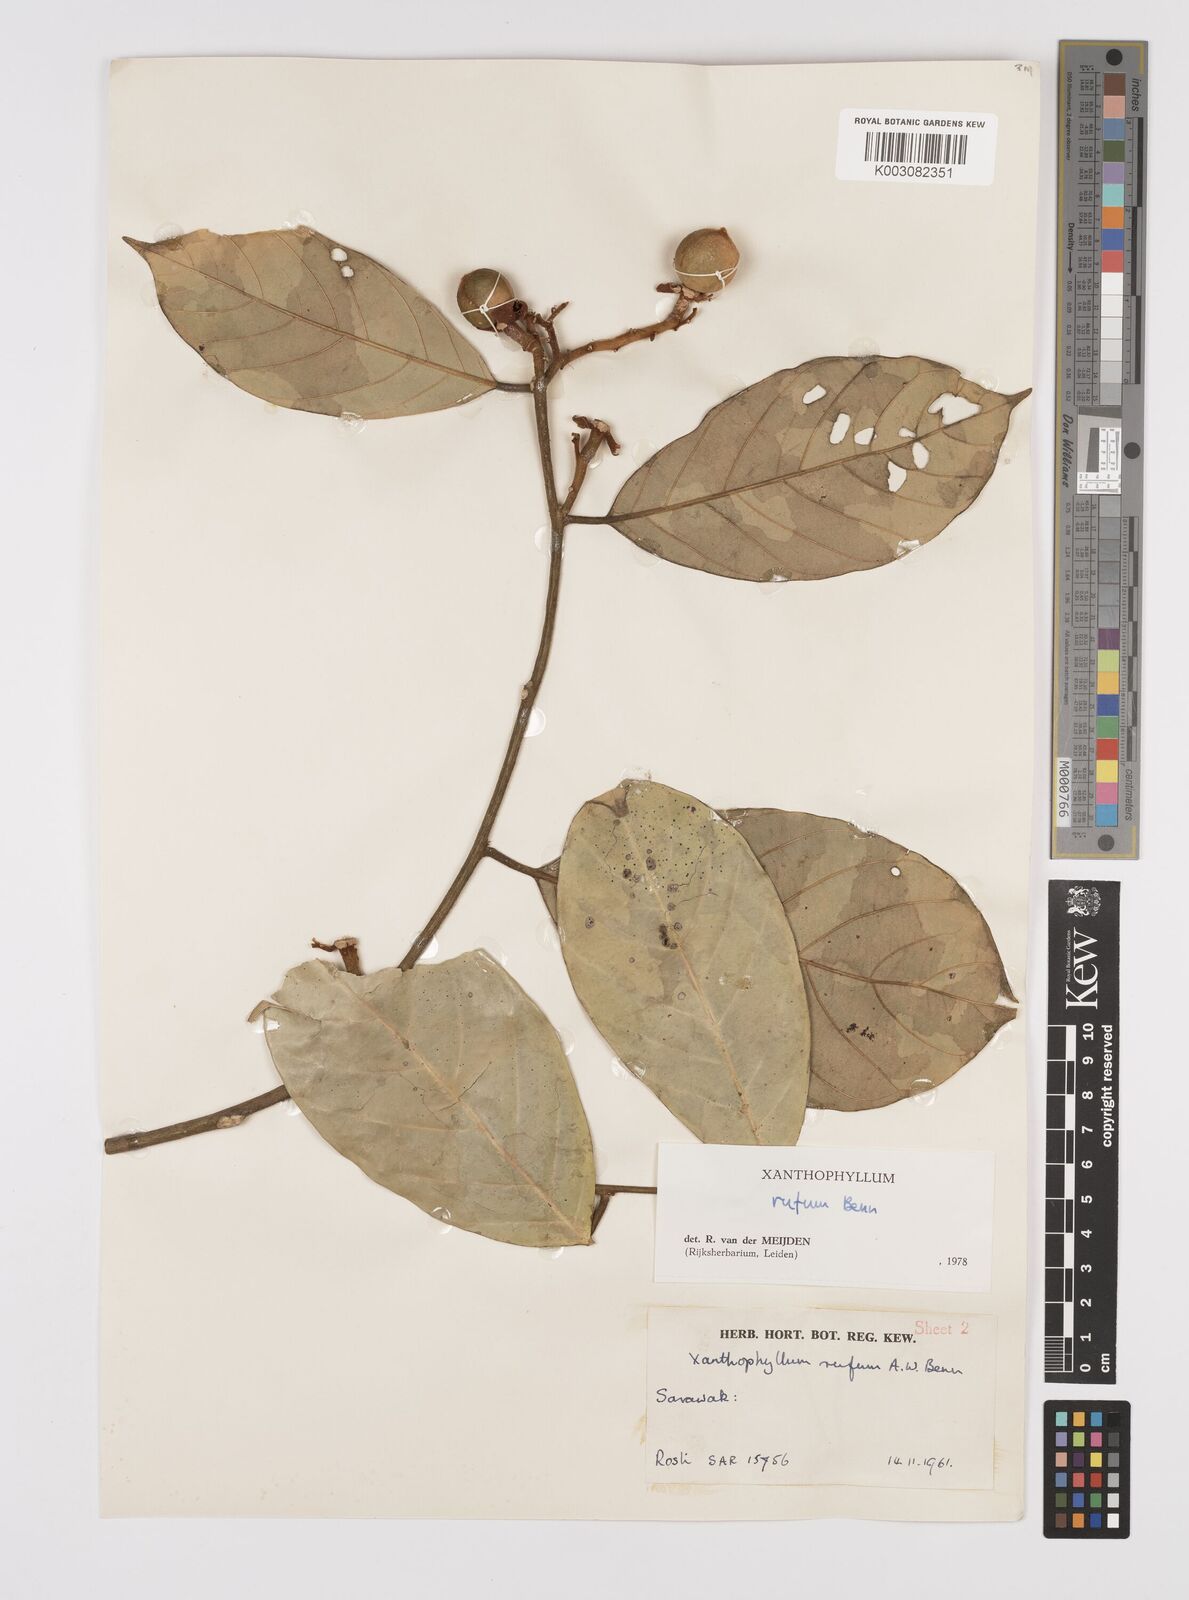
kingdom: Plantae
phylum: Tracheophyta
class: Magnoliopsida
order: Fabales
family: Polygalaceae
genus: Xanthophyllum
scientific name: Xanthophyllum rufum
